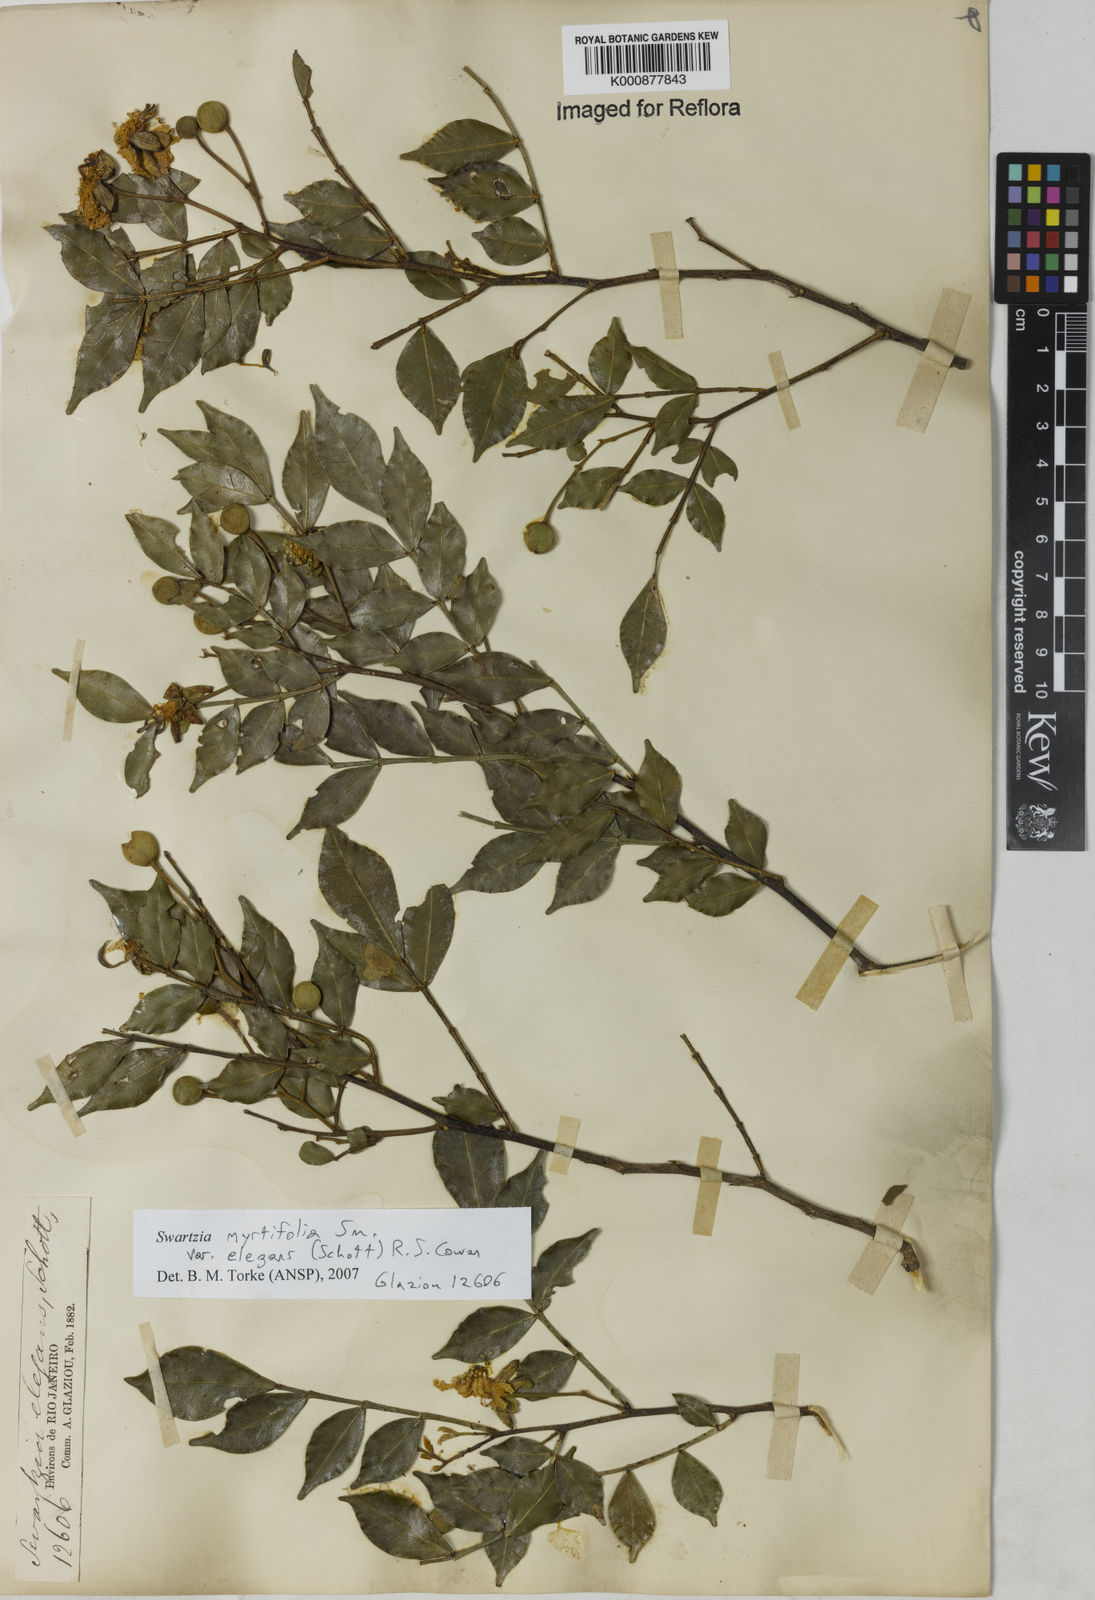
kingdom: Plantae
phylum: Tracheophyta
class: Magnoliopsida
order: Fabales
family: Fabaceae
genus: Swartzia
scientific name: Swartzia myrtifolia
